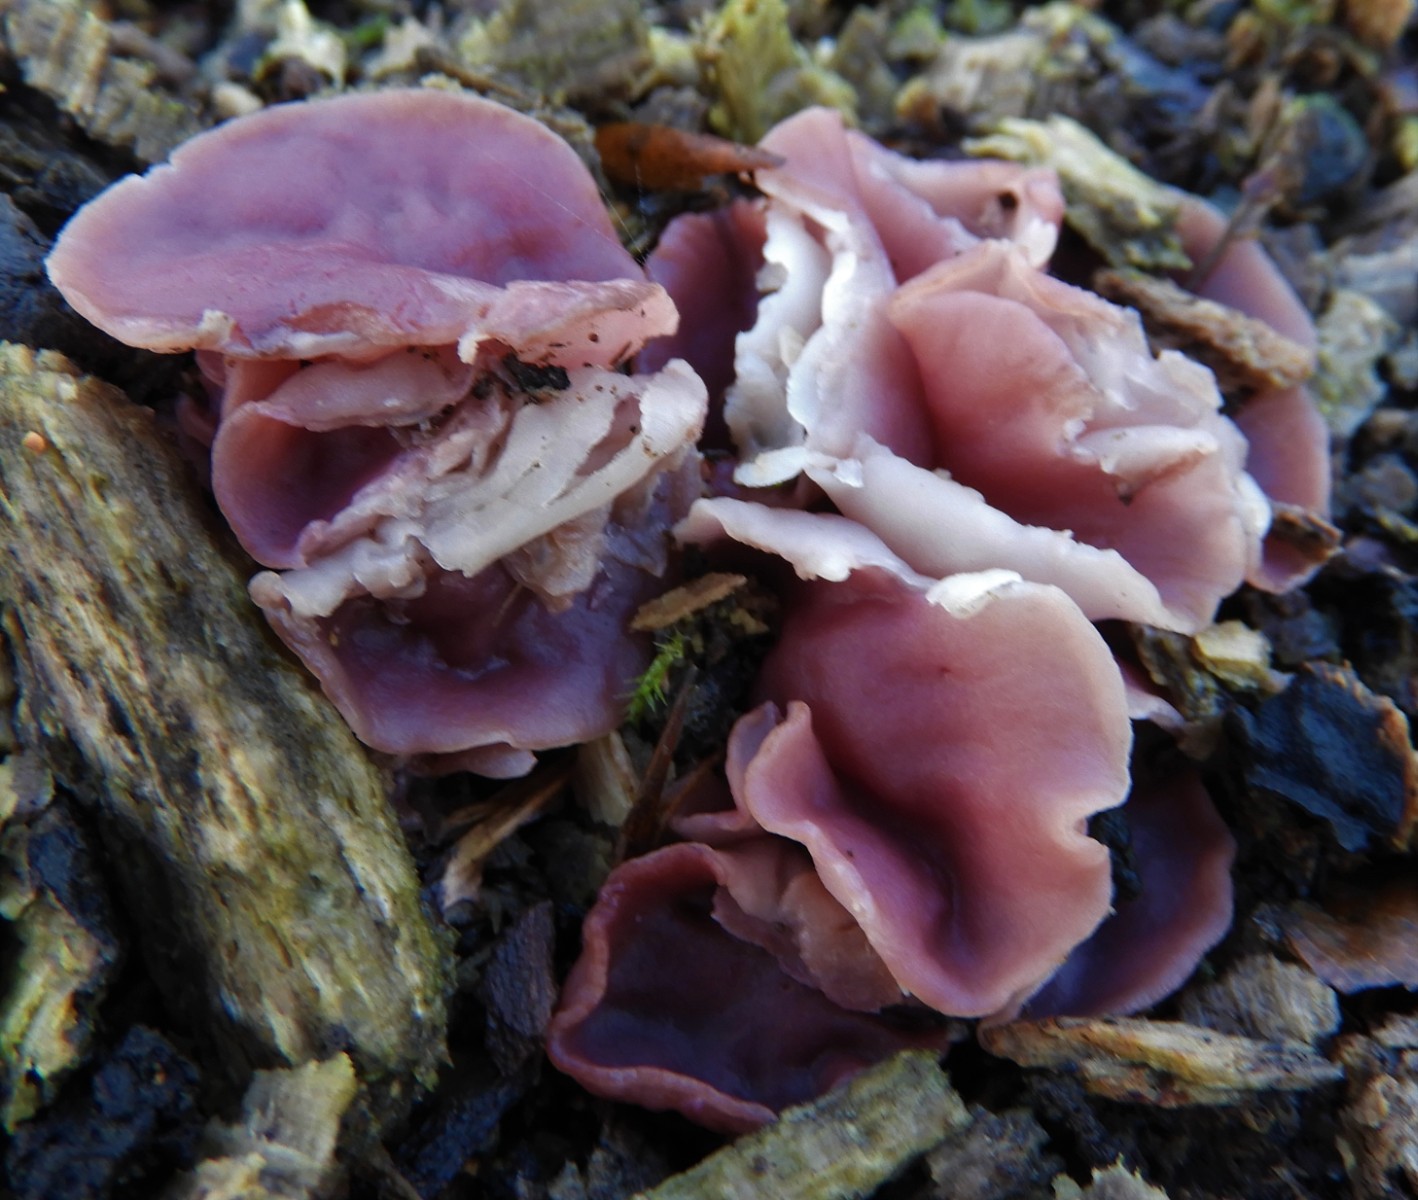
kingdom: Fungi
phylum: Ascomycota
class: Leotiomycetes
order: Helotiales
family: Gelatinodiscaceae
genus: Ascocoryne
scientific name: Ascocoryne cylichnium
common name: stor sejskive
